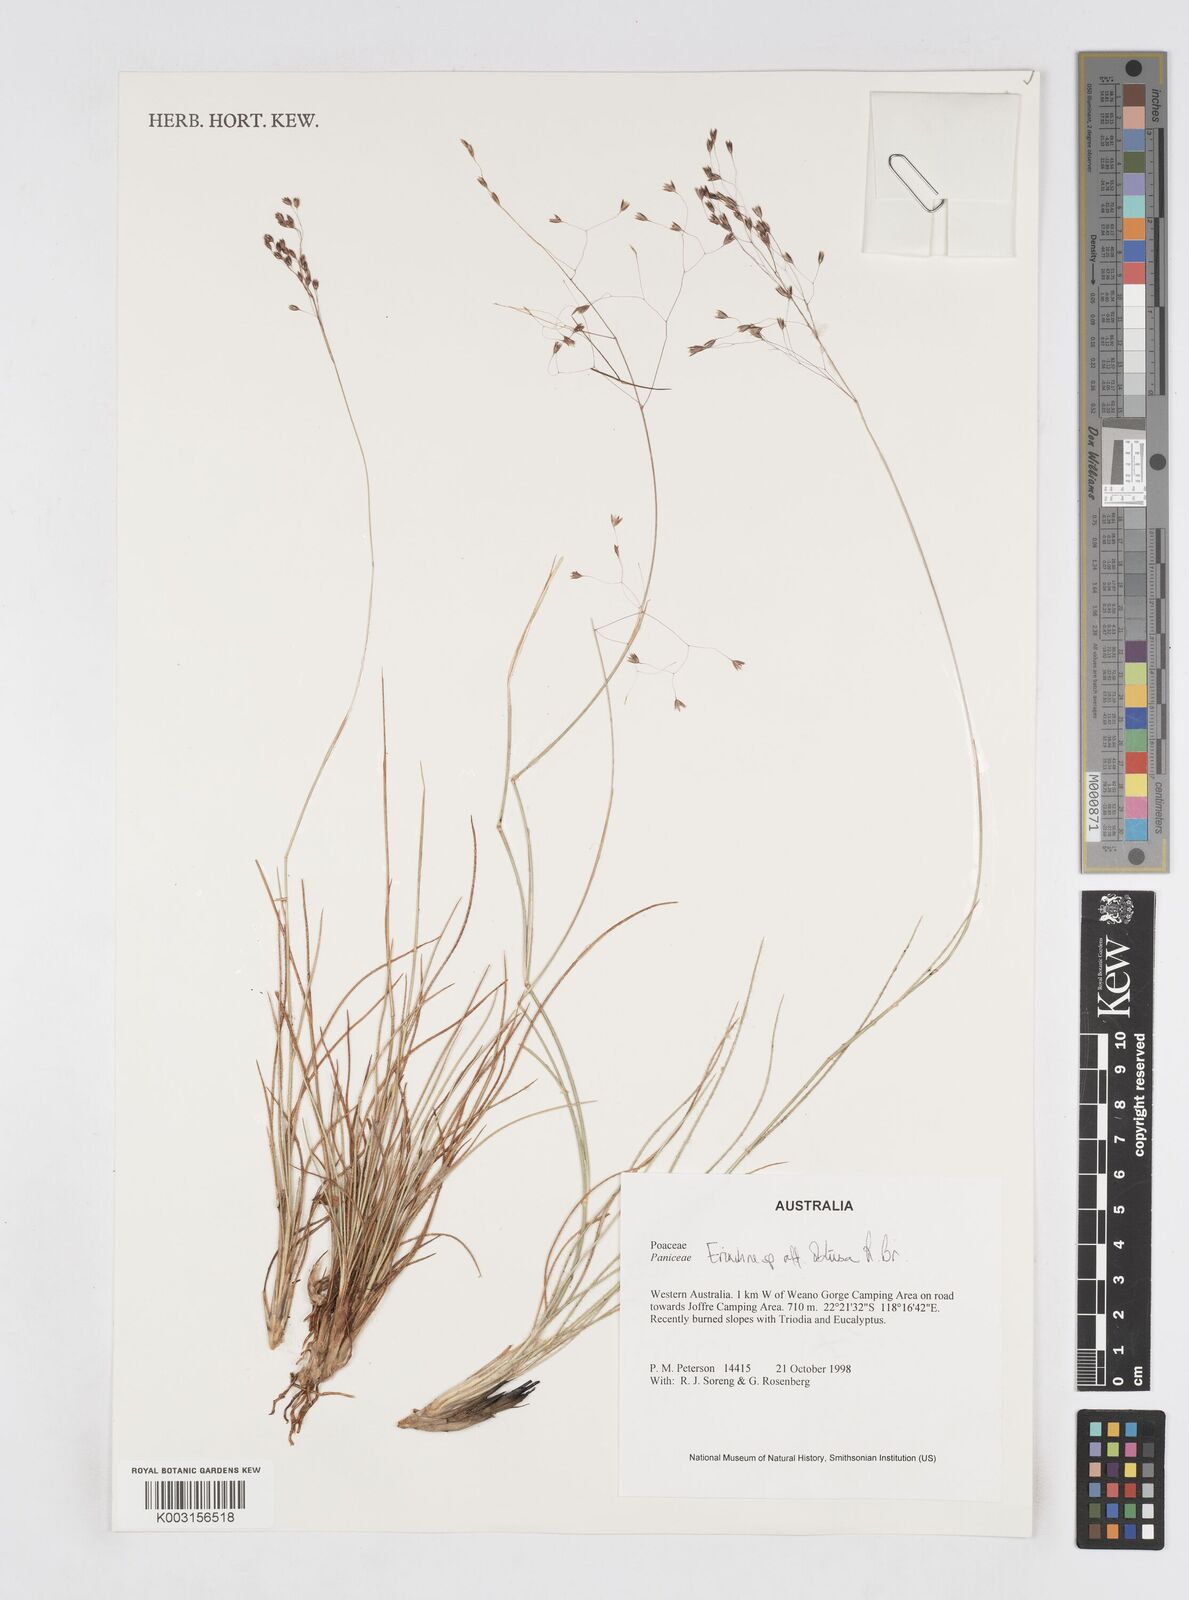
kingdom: Plantae
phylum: Tracheophyta
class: Liliopsida
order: Poales
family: Poaceae
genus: Eriachne
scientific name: Eriachne obtusa
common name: Northern wanderrie grass
